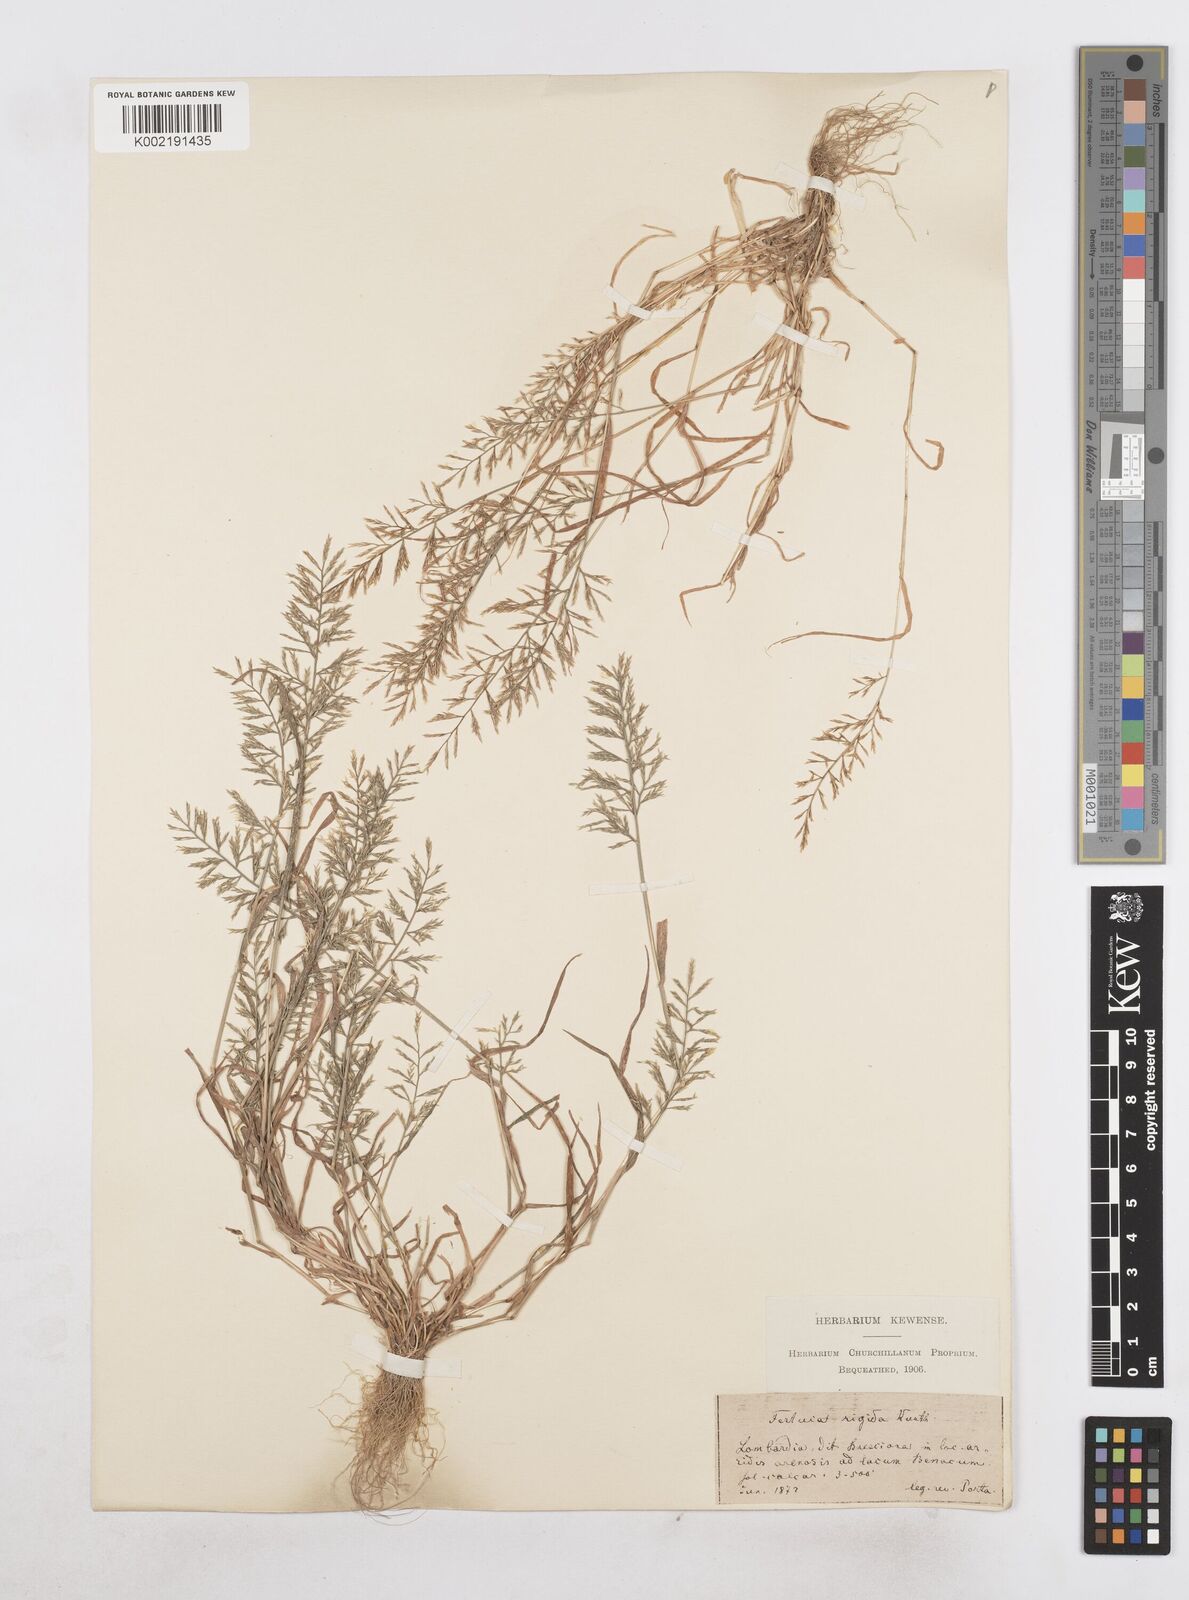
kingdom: Plantae
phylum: Tracheophyta
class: Liliopsida
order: Poales
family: Poaceae
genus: Catapodium
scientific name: Catapodium rigidum
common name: Fern-grass
